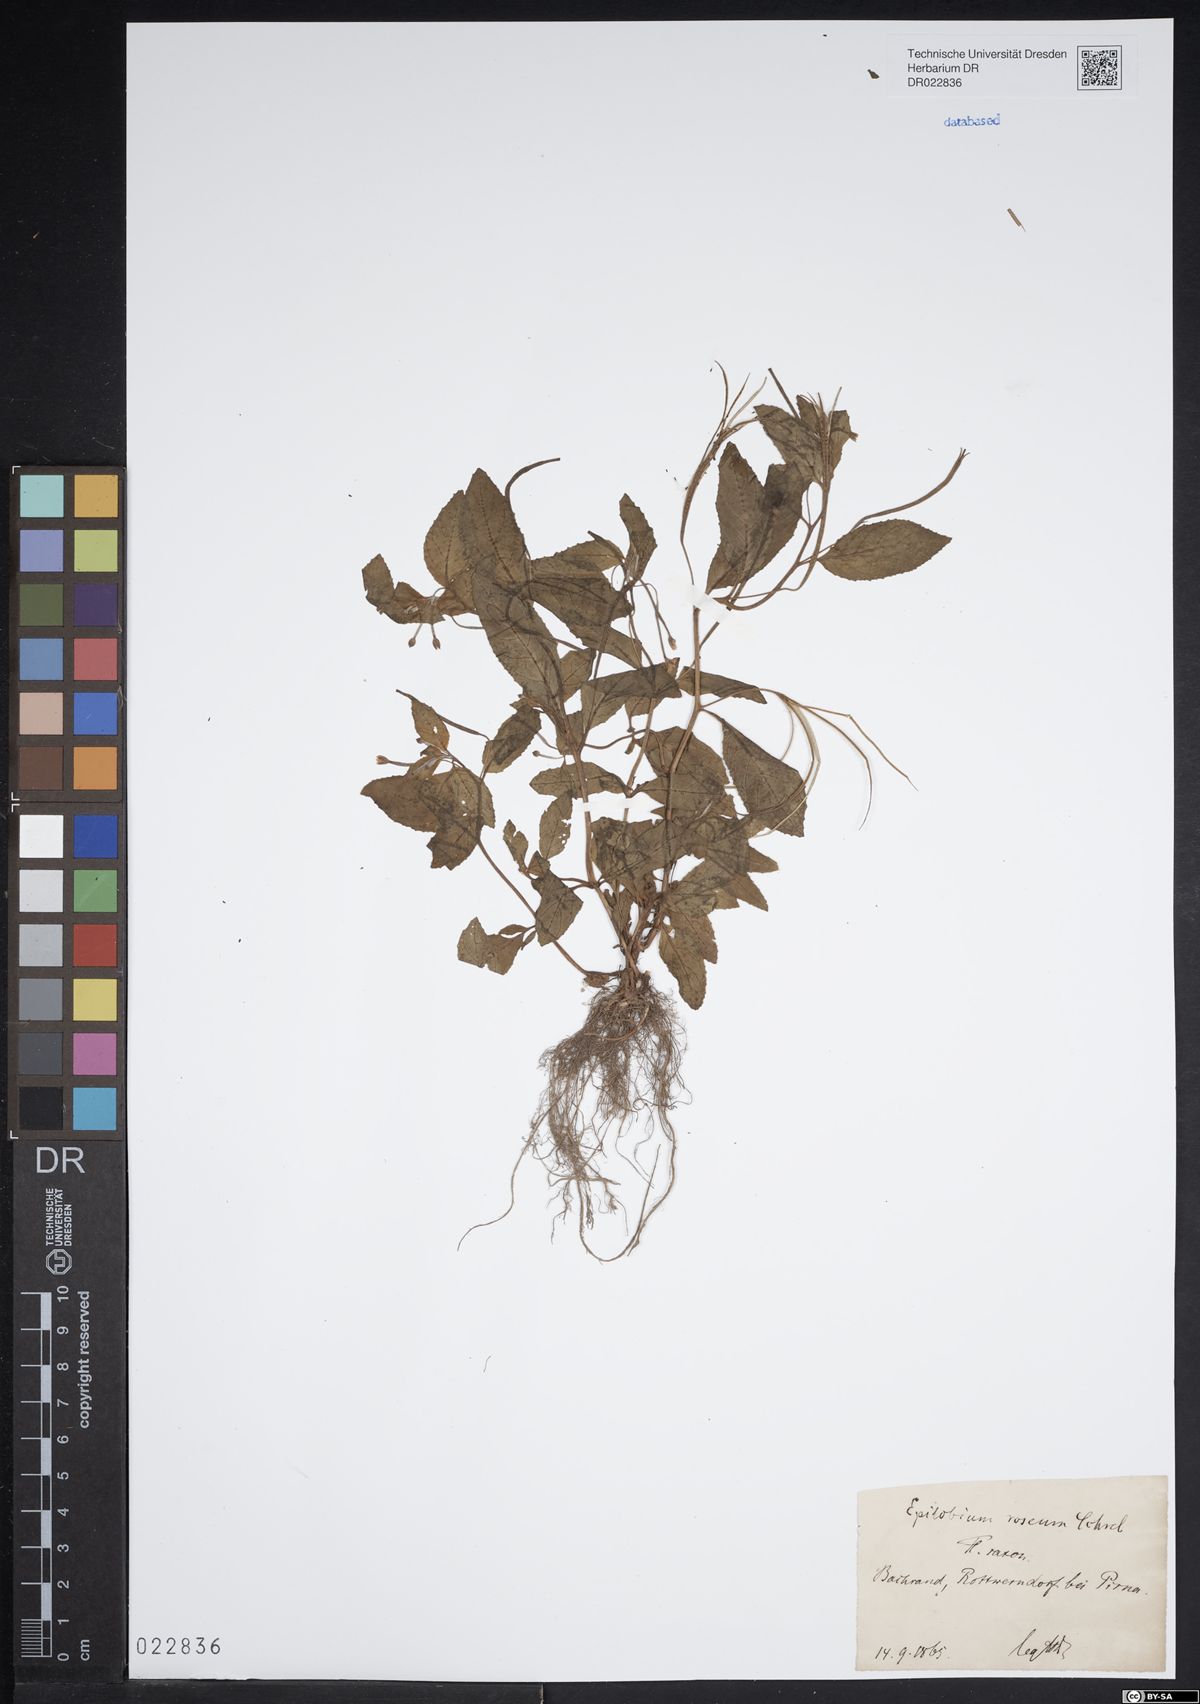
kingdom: Plantae
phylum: Tracheophyta
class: Magnoliopsida
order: Myrtales
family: Onagraceae
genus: Epilobium
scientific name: Epilobium roseum
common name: Pale willowherb
